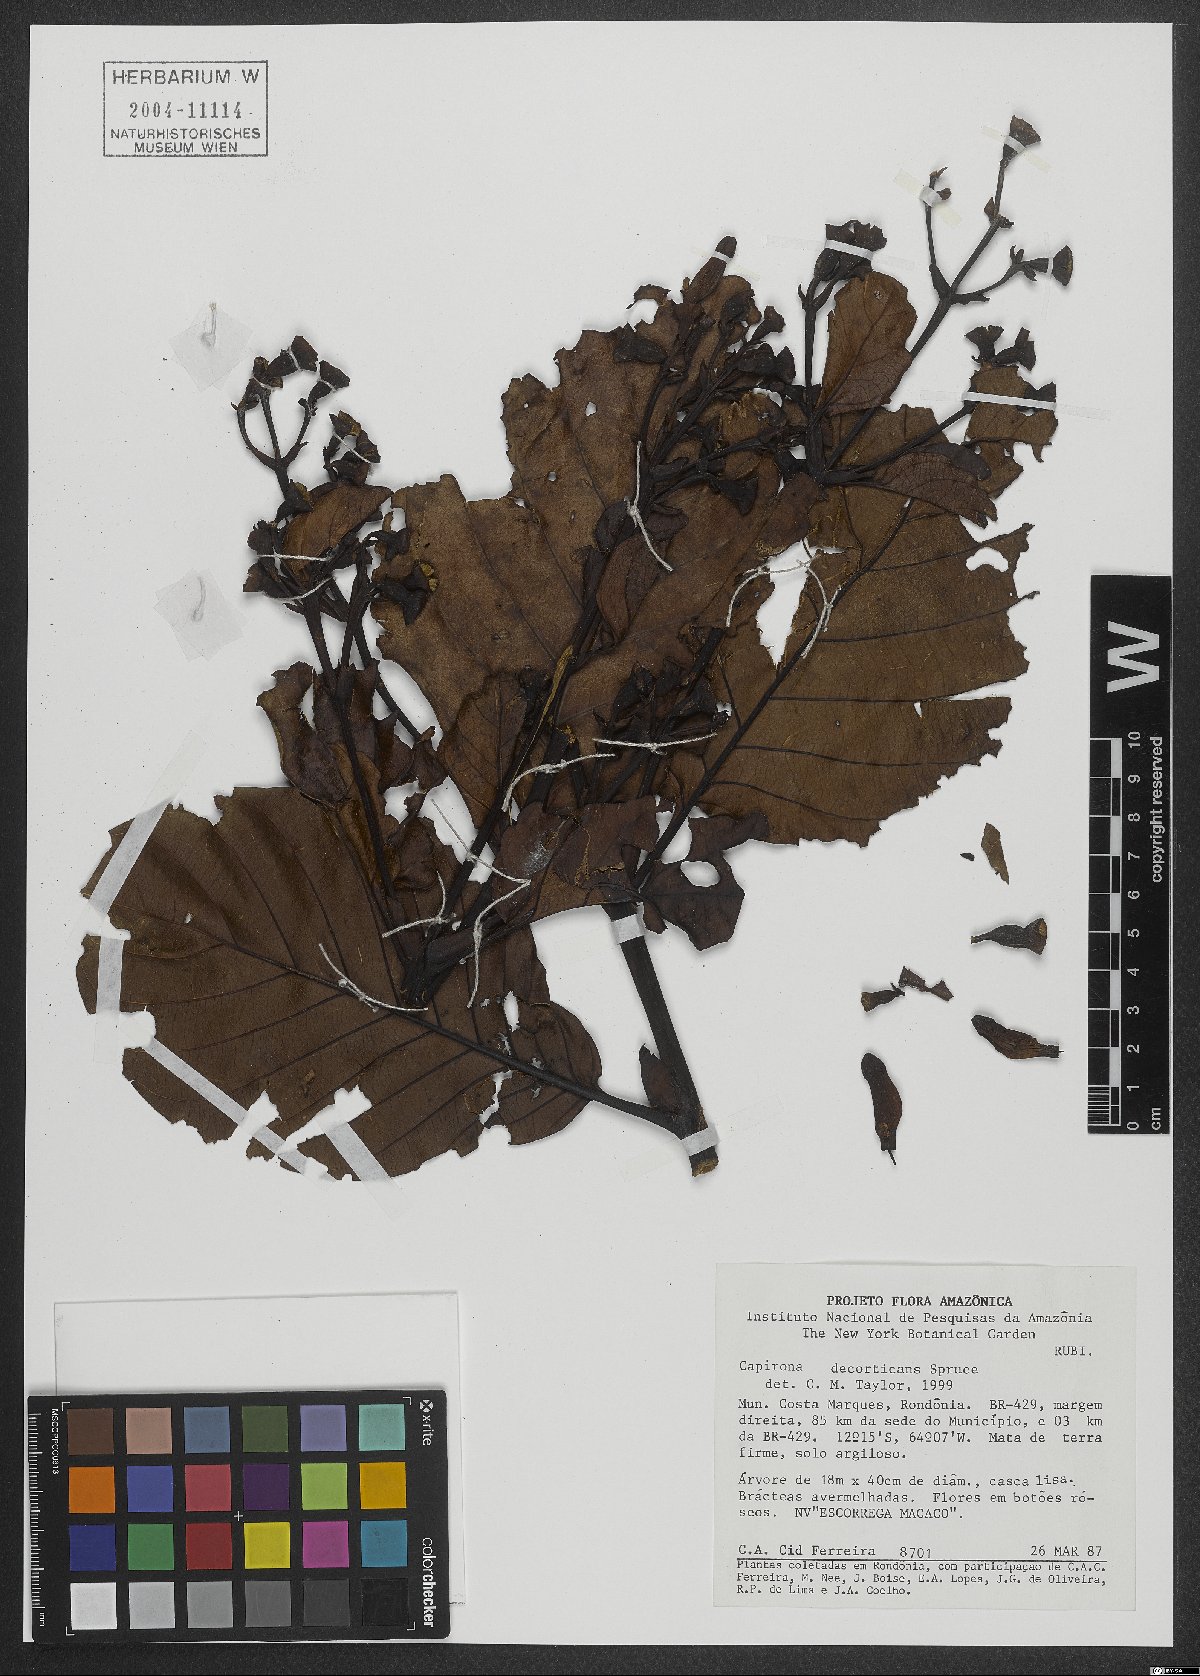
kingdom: Plantae
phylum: Tracheophyta
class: Magnoliopsida
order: Gentianales
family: Rubiaceae
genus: Capirona
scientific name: Capirona macrophylla
